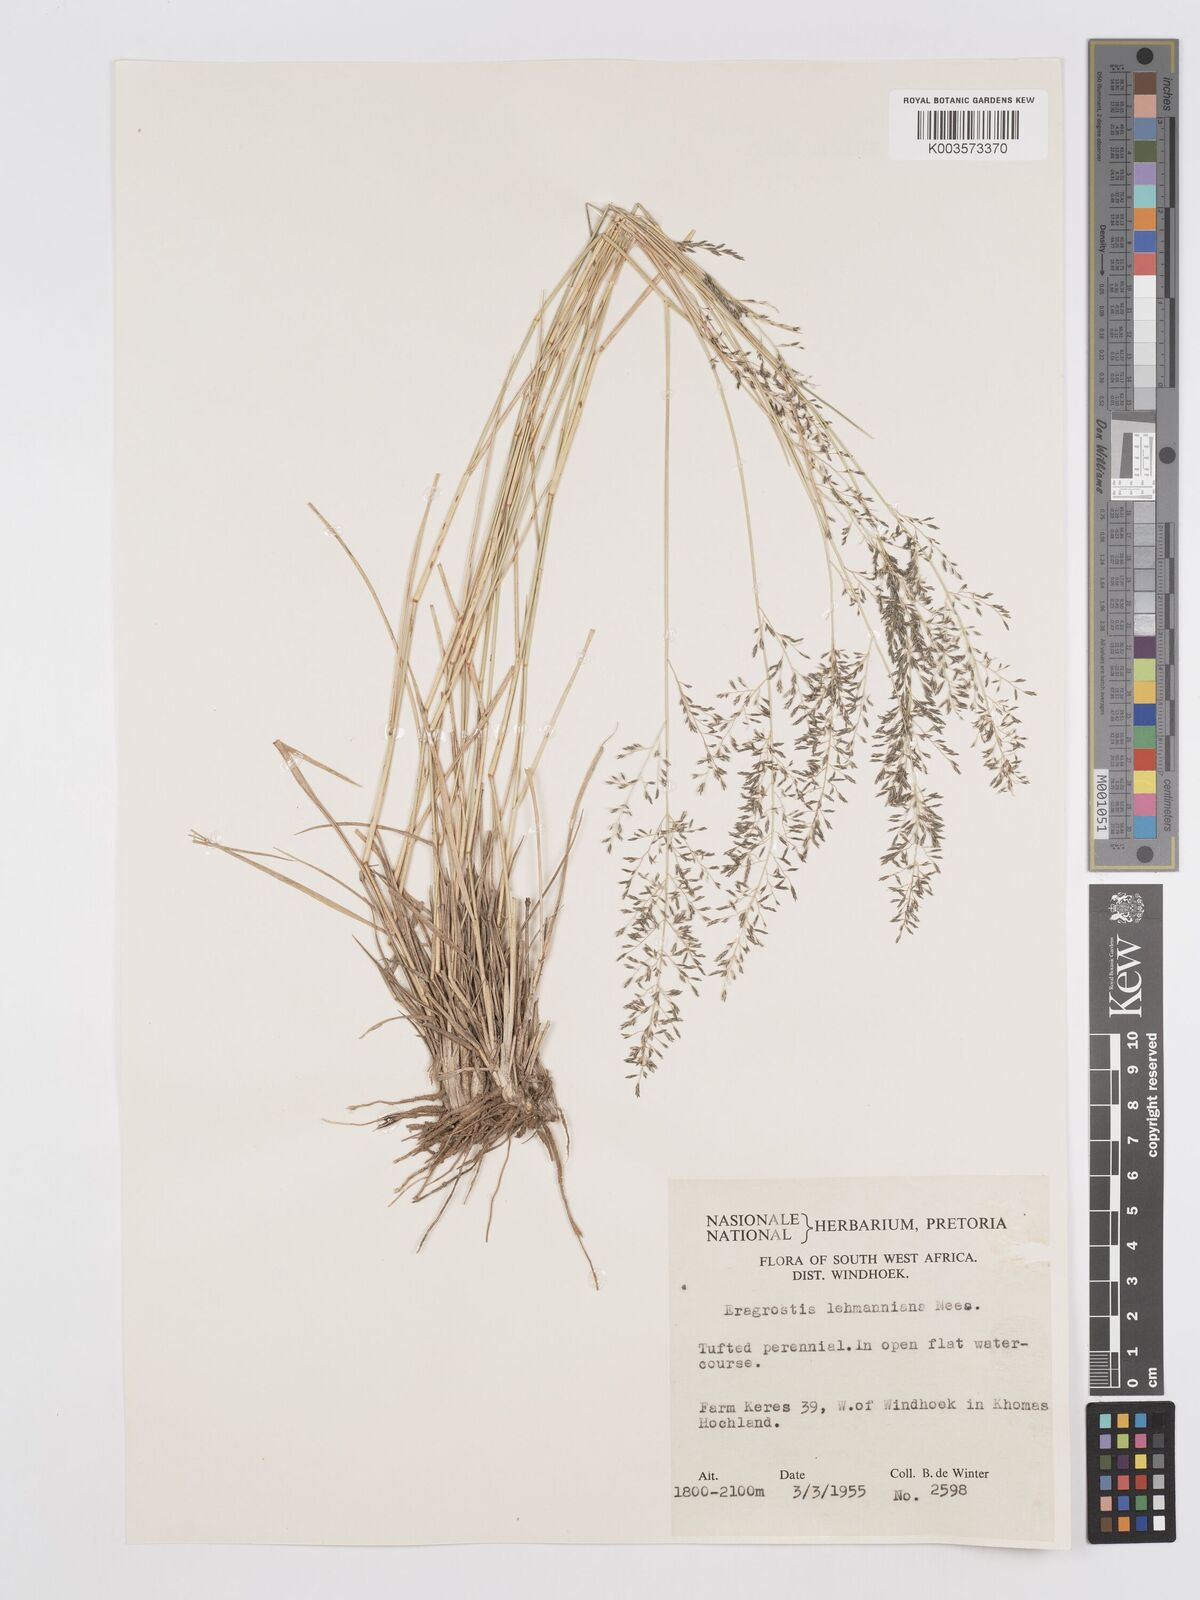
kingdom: Plantae
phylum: Tracheophyta
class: Liliopsida
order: Poales
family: Poaceae
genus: Eragrostis
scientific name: Eragrostis lehmanniana
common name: Lehmann lovegrass
